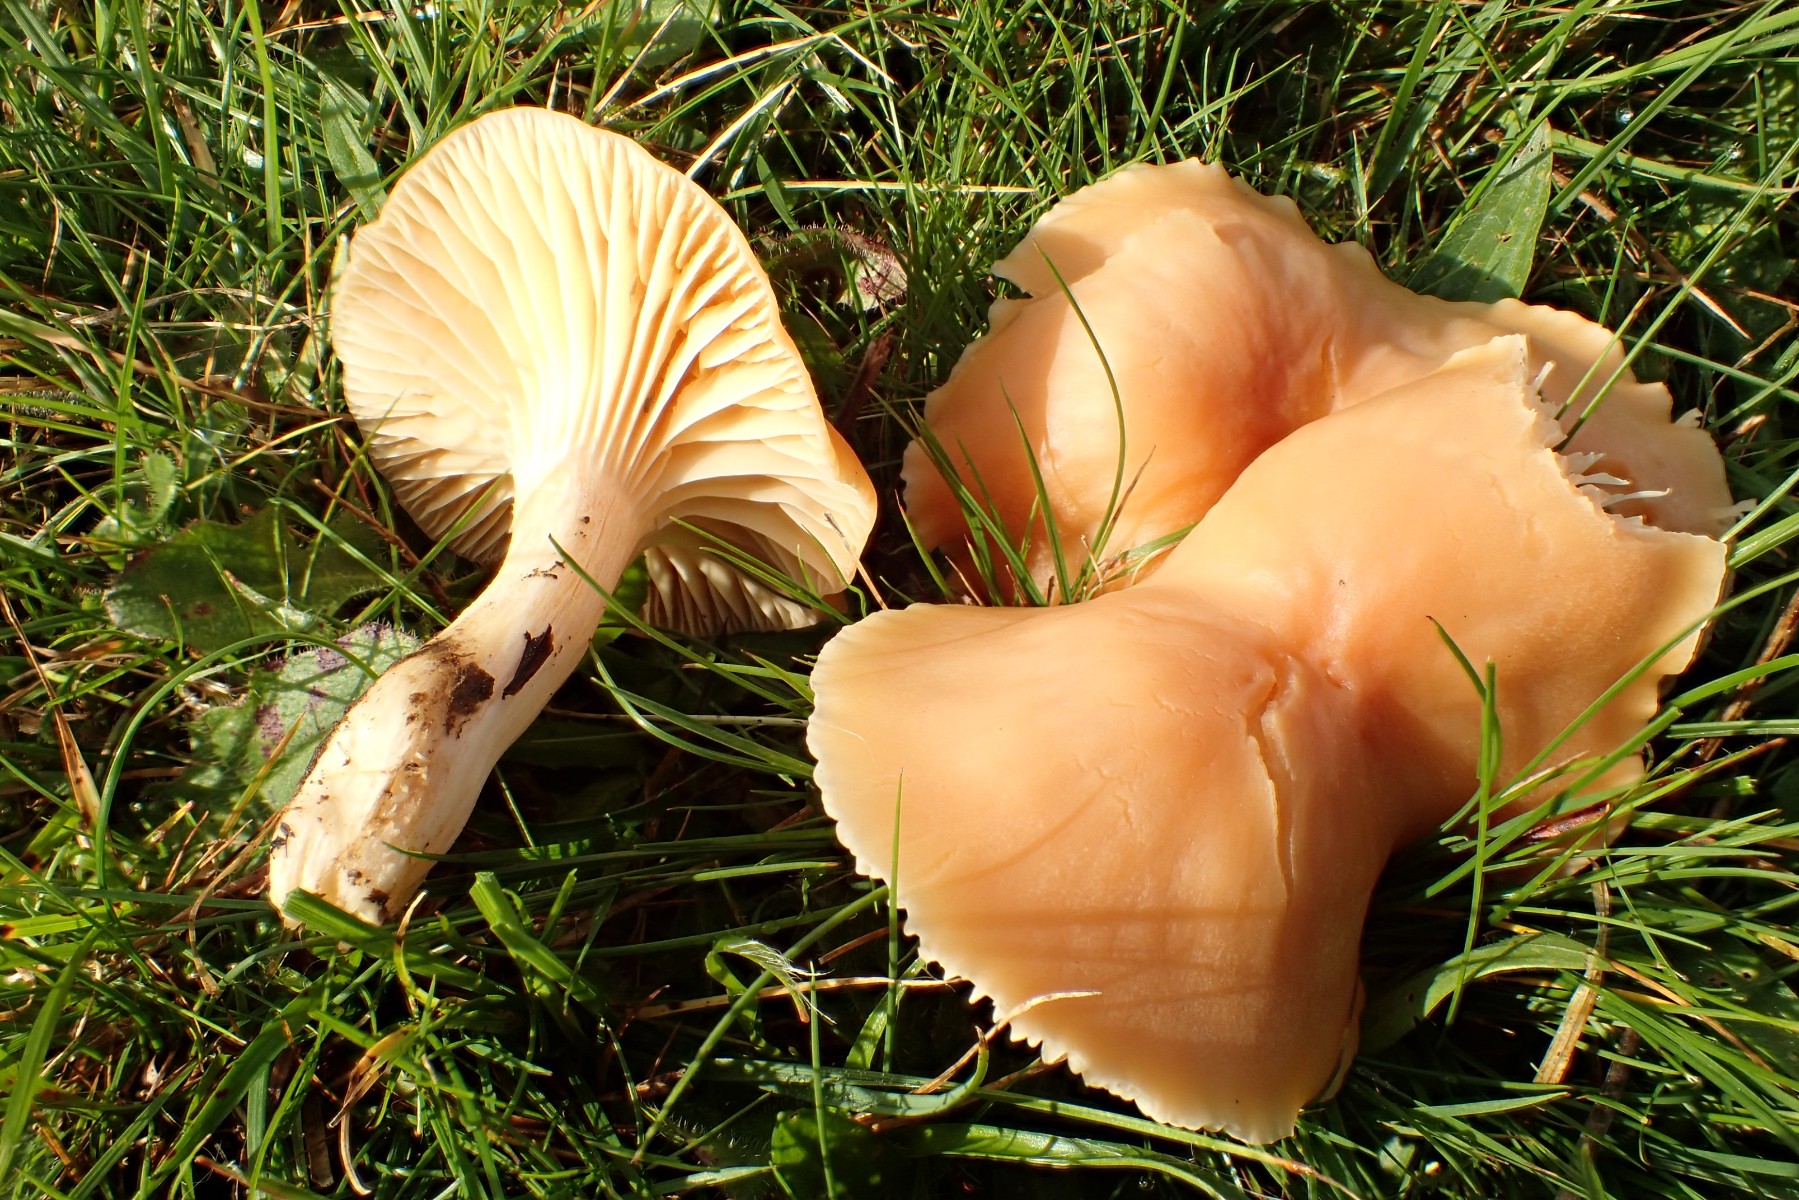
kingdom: Fungi
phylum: Basidiomycota
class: Agaricomycetes
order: Agaricales
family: Hygrophoraceae
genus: Cuphophyllus
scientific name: Cuphophyllus pratensis
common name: eng-vokshat
